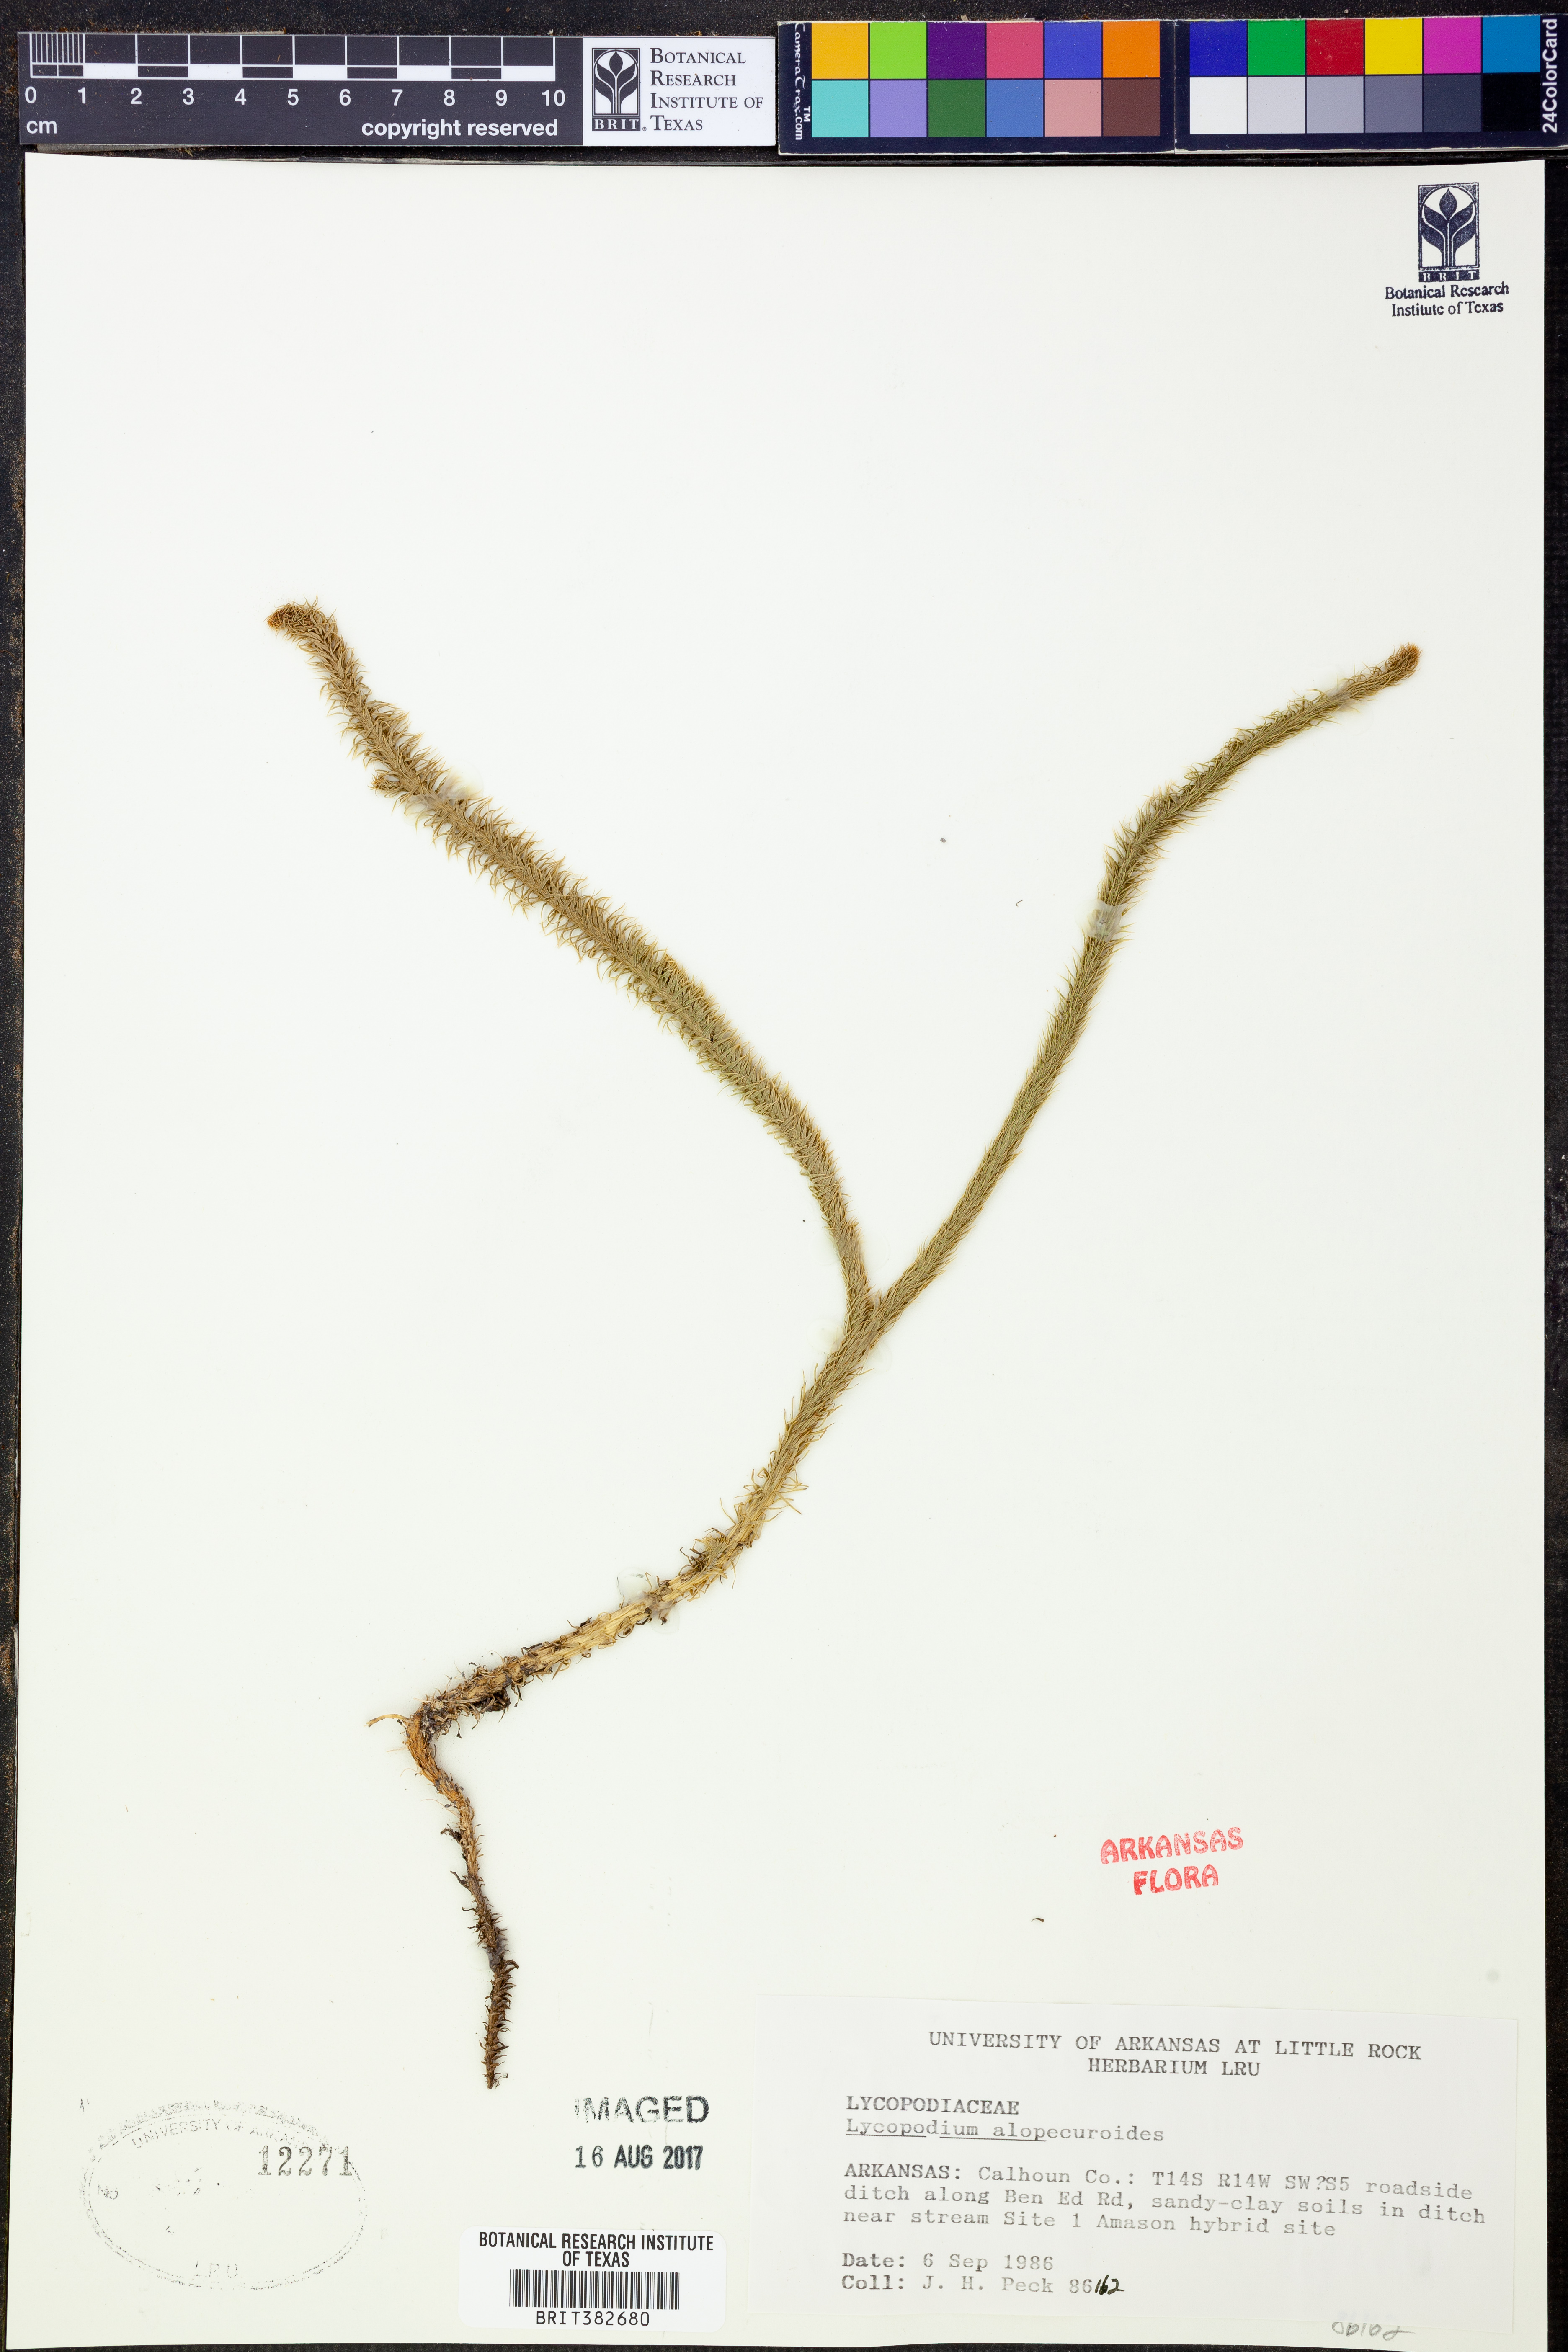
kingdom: Plantae
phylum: Tracheophyta
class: Lycopodiopsida
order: Lycopodiales
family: Lycopodiaceae
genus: Lycopodiella
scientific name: Lycopodiella alopecuroides
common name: Foxtail clubmoss
